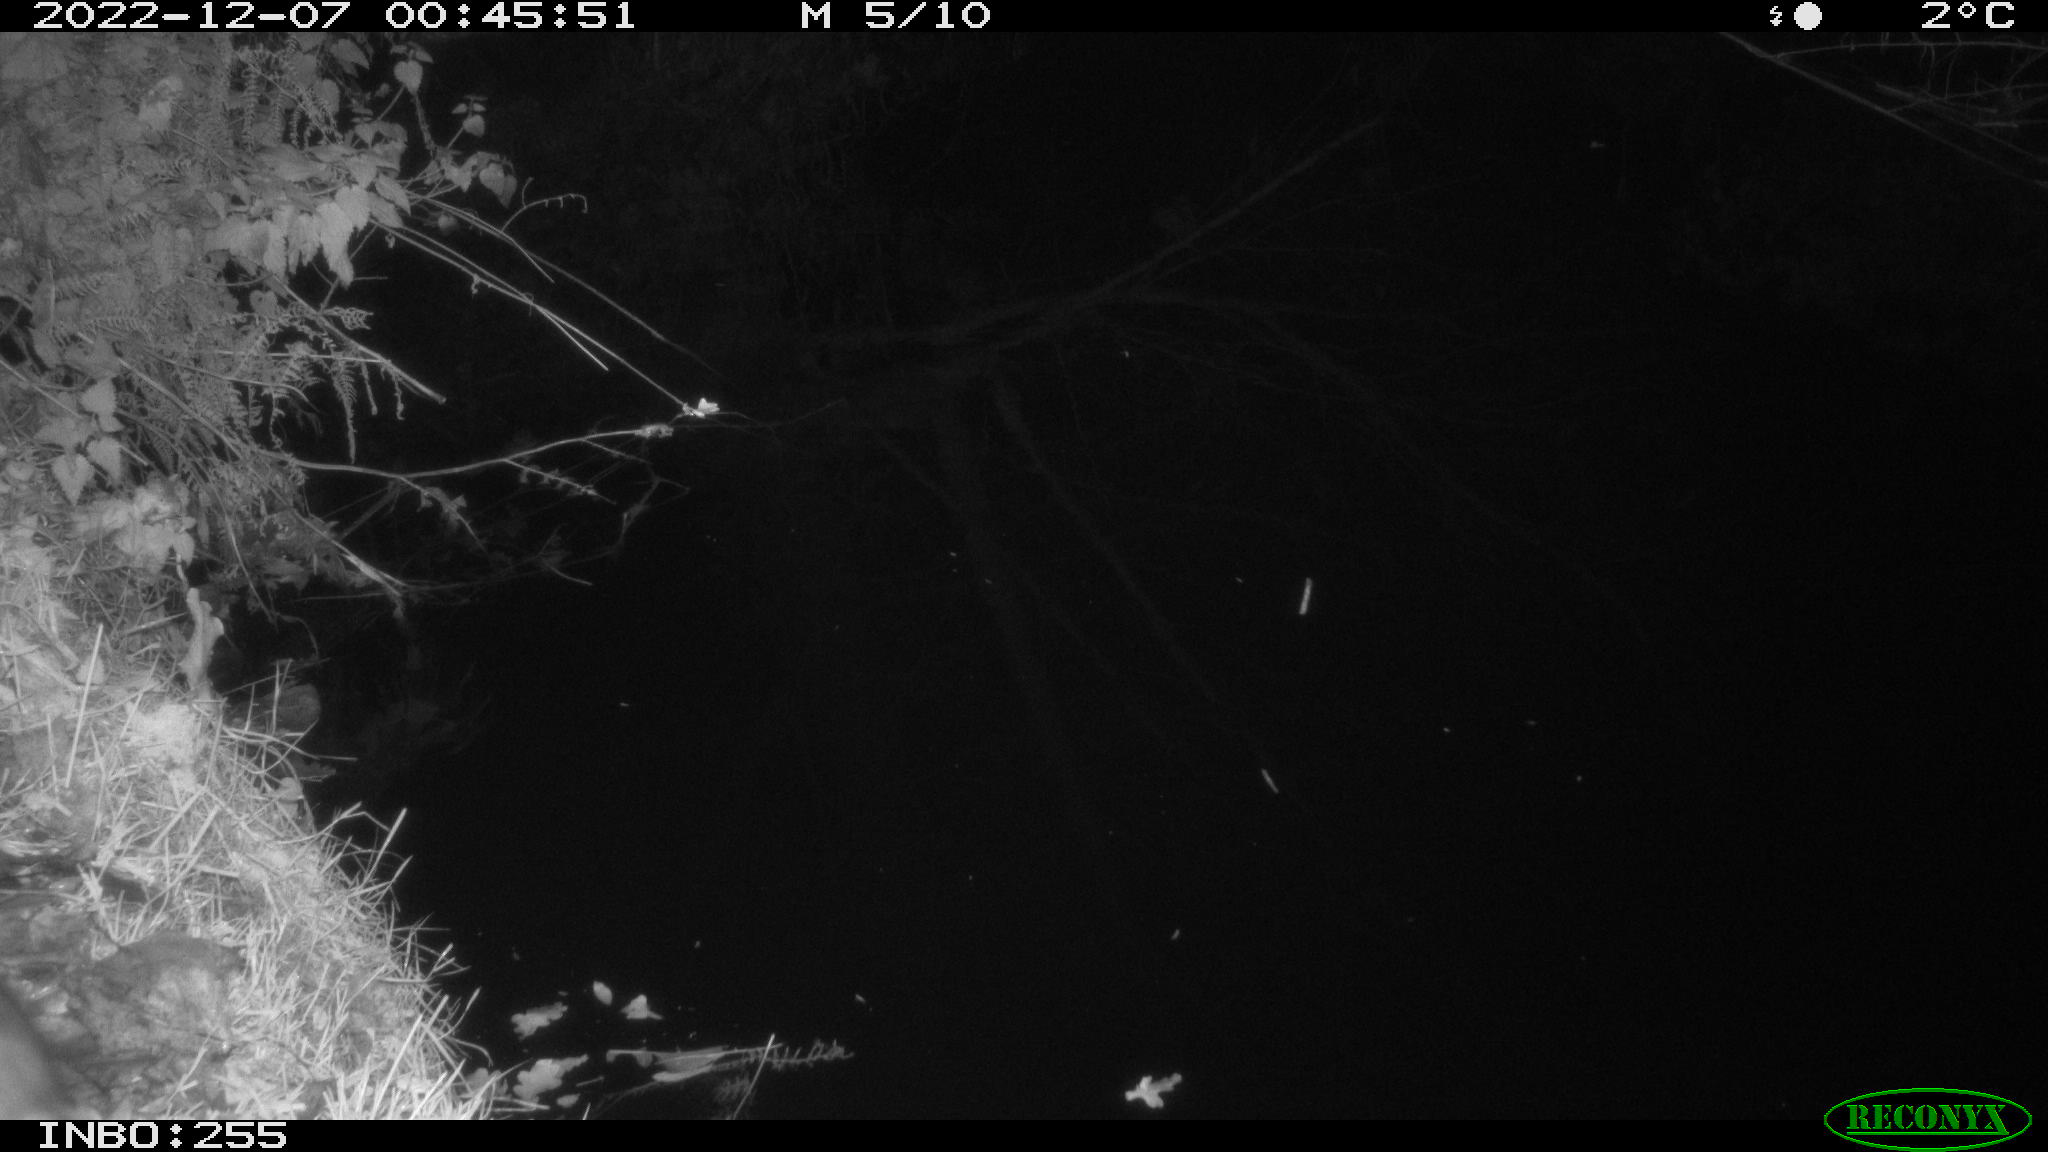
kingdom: Animalia
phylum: Chordata
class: Mammalia
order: Rodentia
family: Muridae
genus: Rattus
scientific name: Rattus norvegicus
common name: Brown rat
